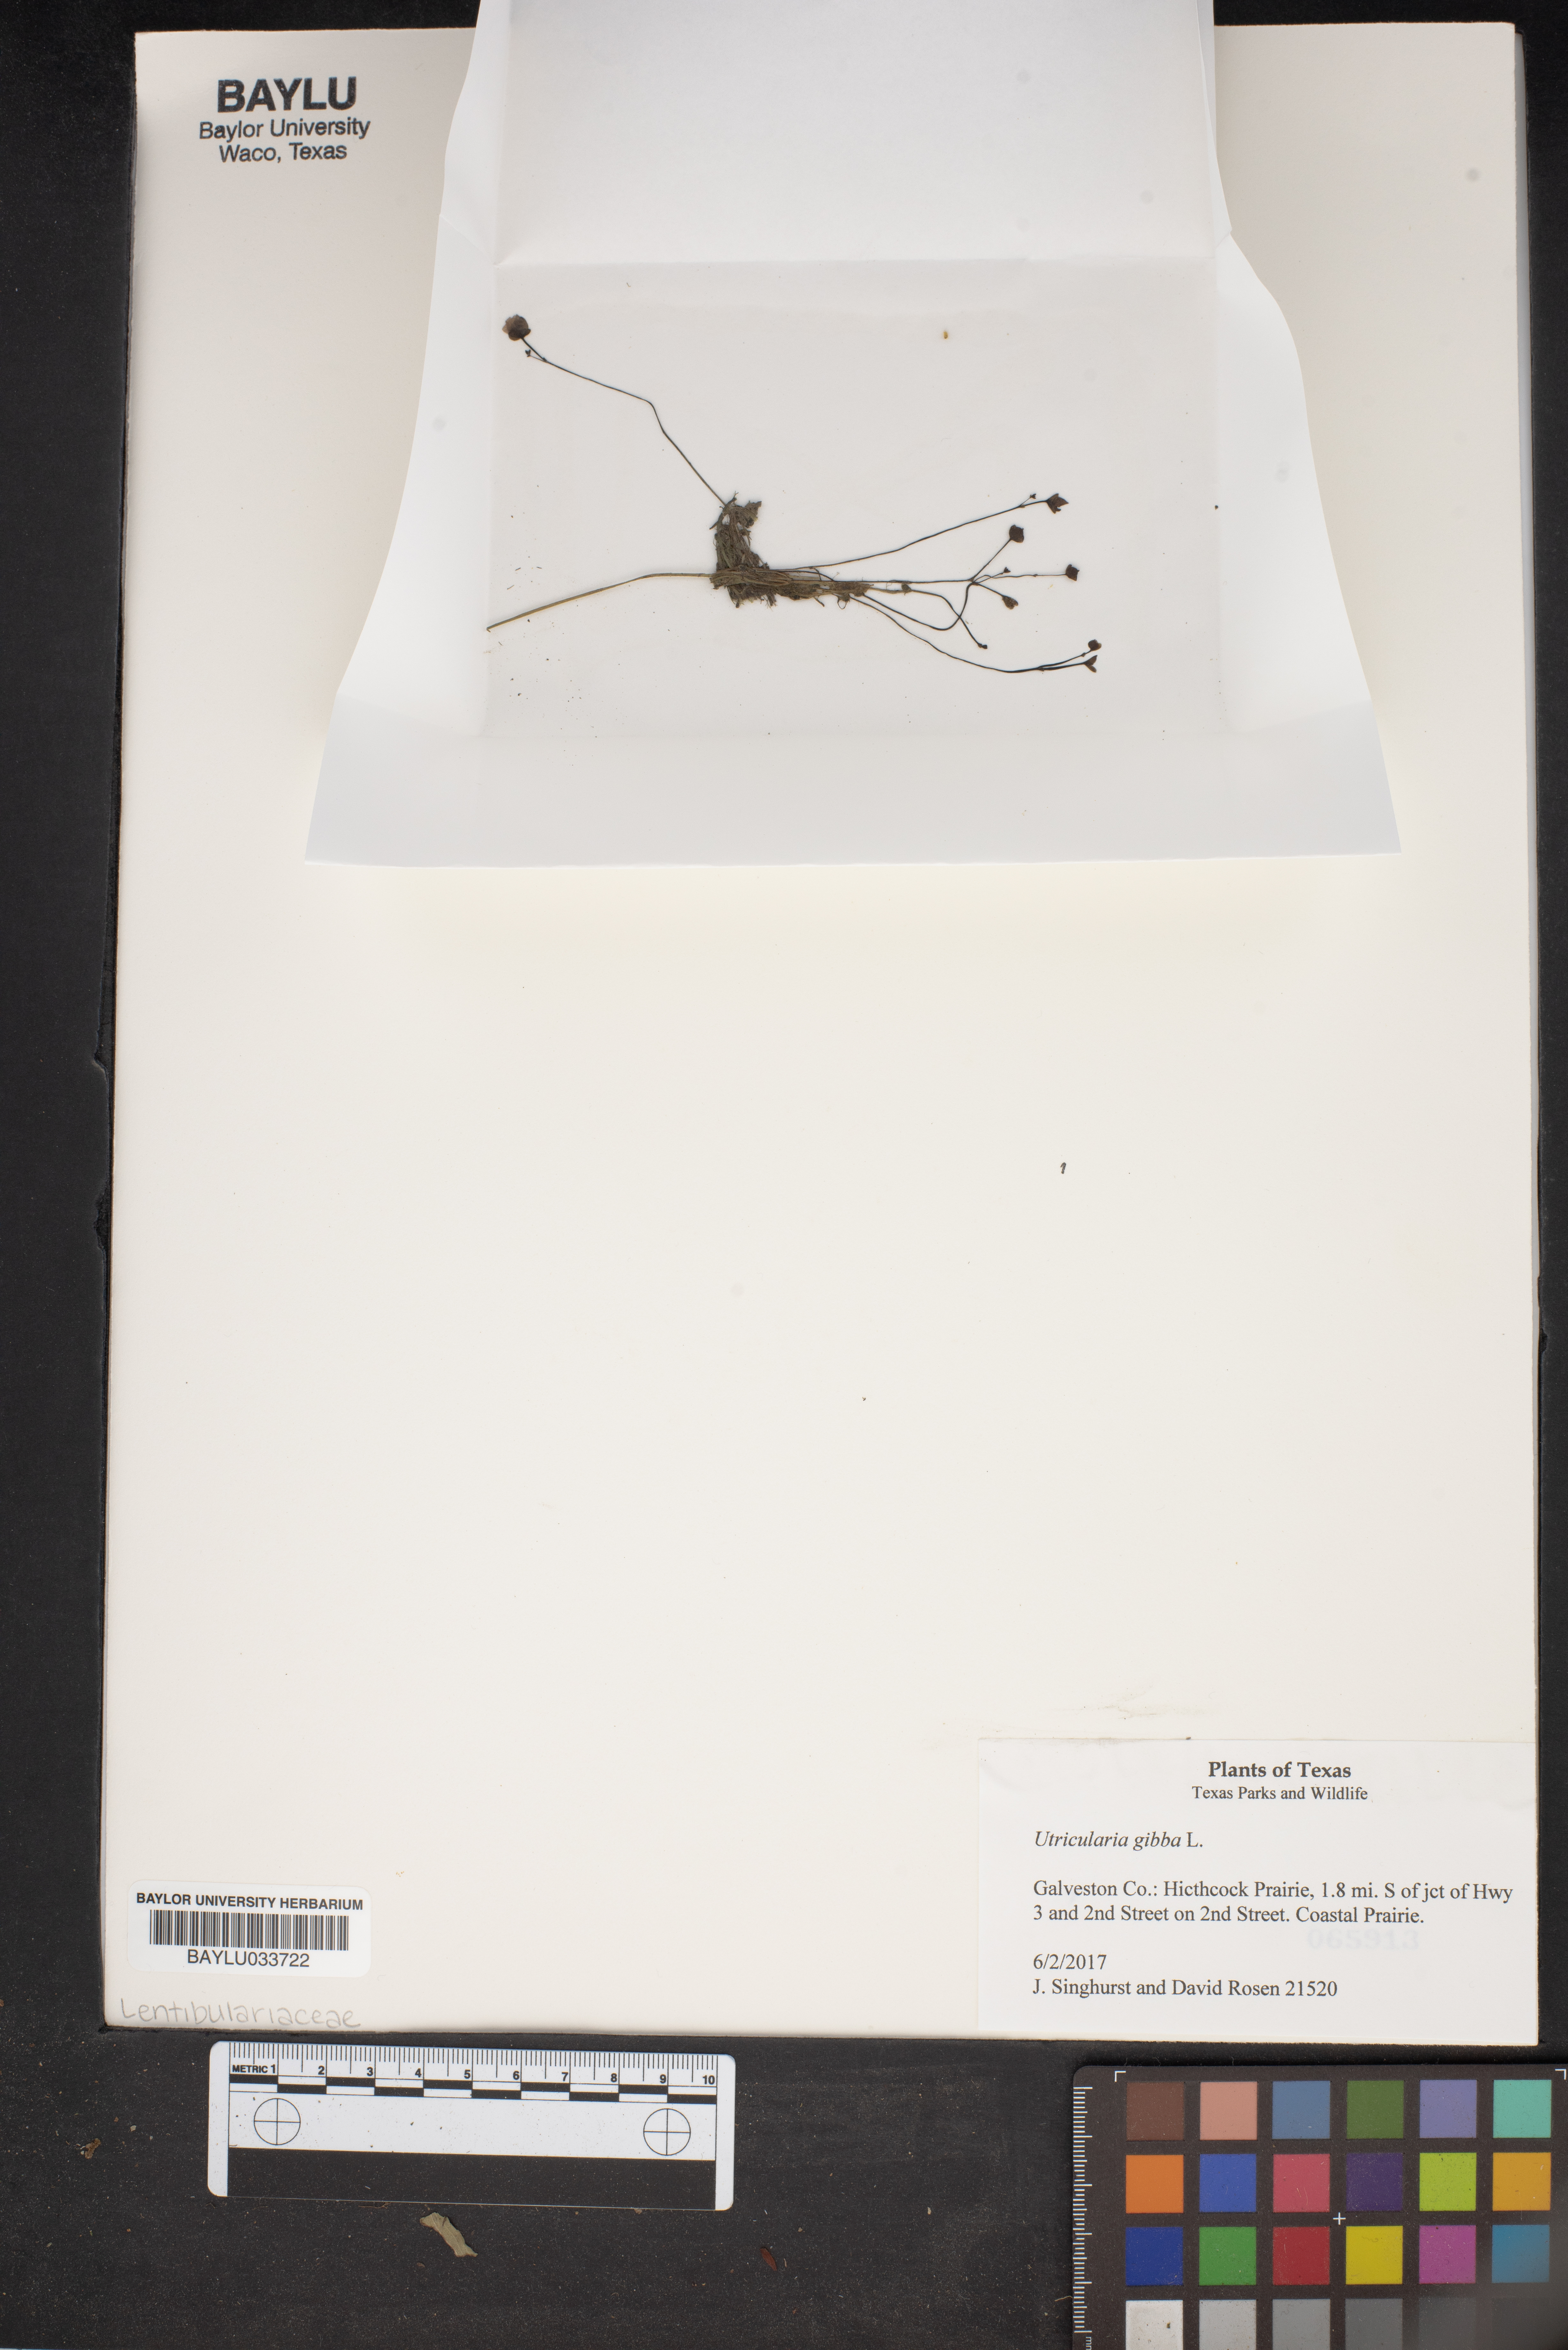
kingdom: Plantae
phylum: Tracheophyta
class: Magnoliopsida
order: Lamiales
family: Lentibulariaceae
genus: Utricularia
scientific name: Utricularia gibba
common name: Humped bladderwort
